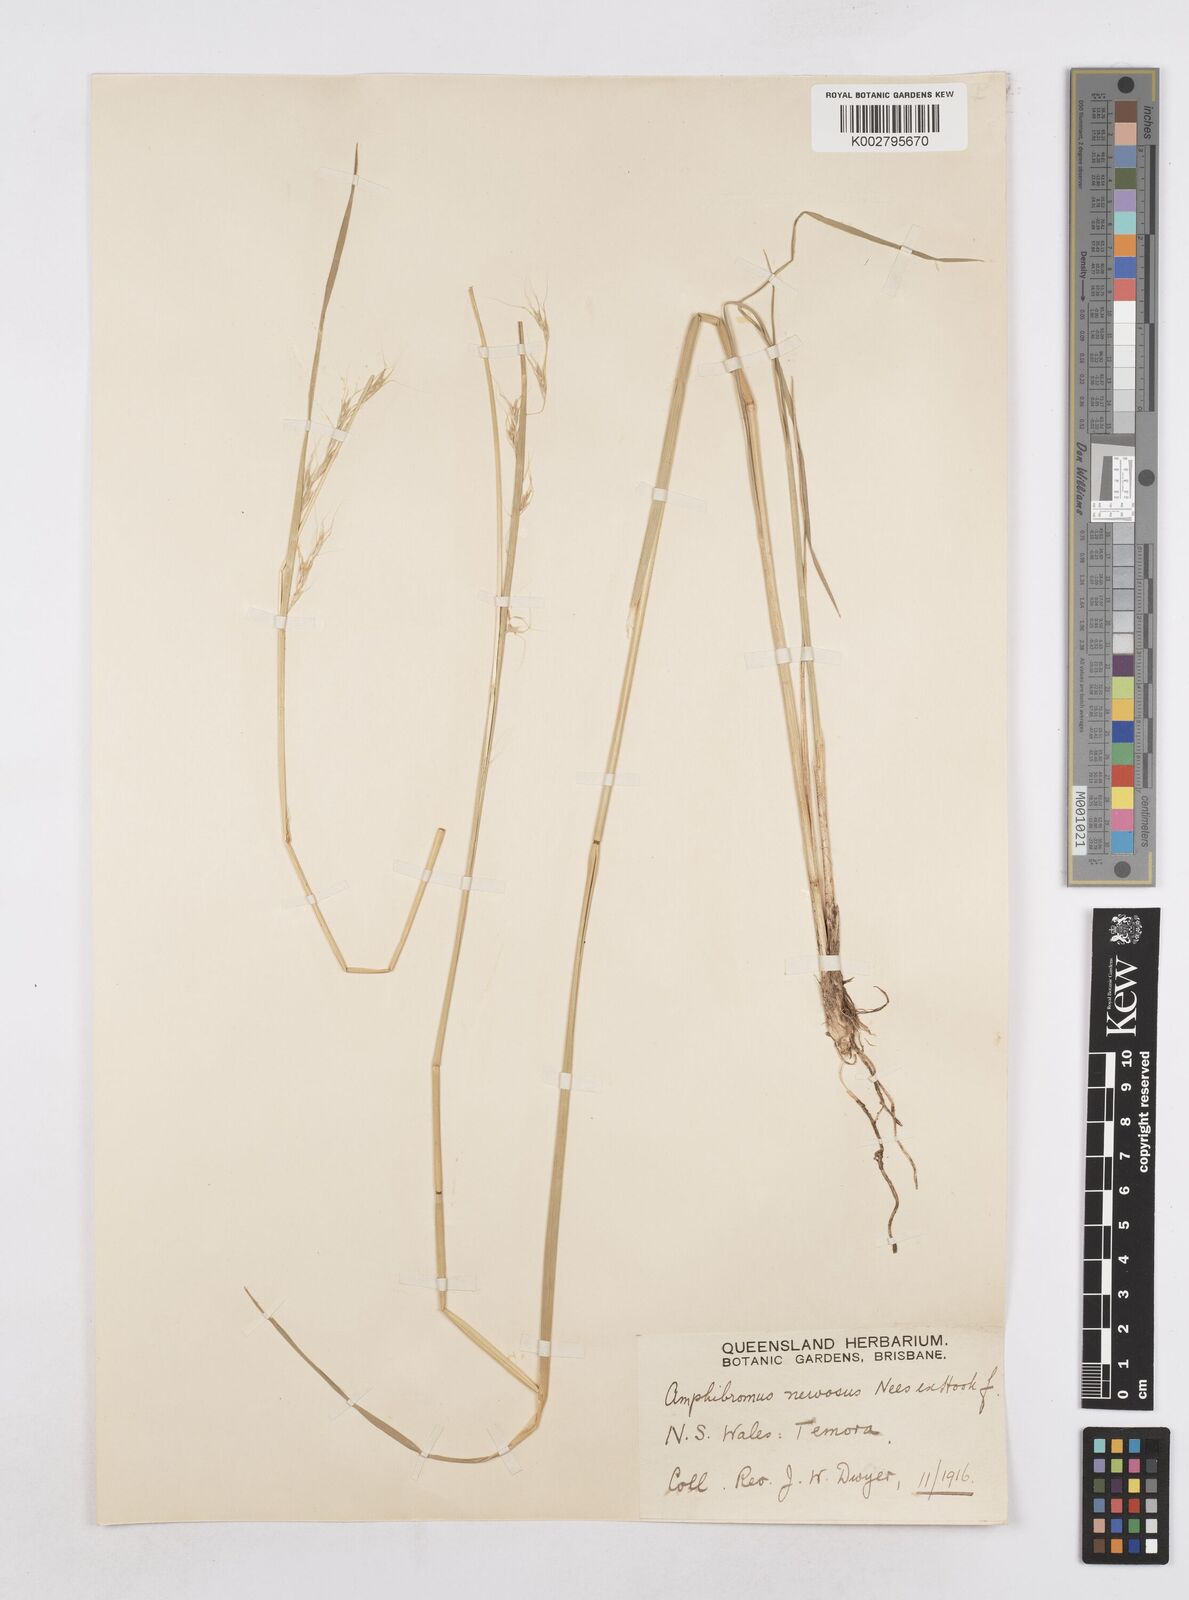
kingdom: Plantae
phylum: Tracheophyta
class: Liliopsida
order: Poales
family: Poaceae
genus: Amphibromus
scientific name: Amphibromus neesii
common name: Australian wallaby grass
